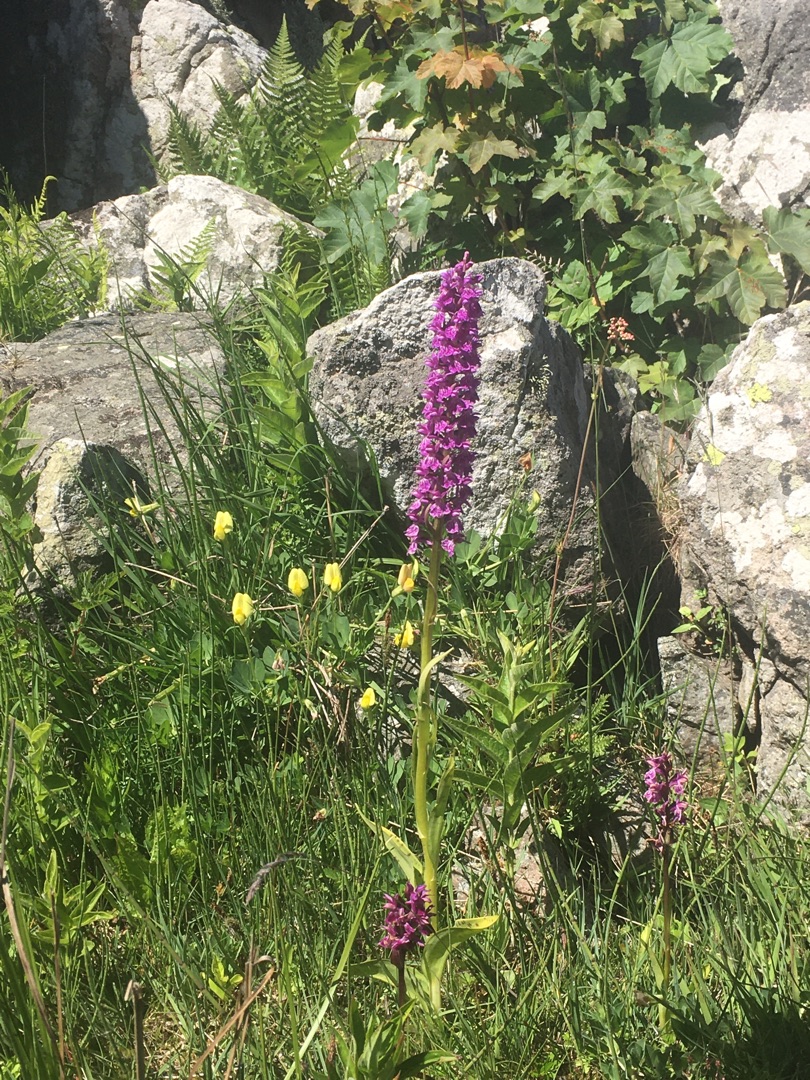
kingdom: Plantae
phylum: Tracheophyta
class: Liliopsida
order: Asparagales
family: Orchidaceae
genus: Dactylorhiza
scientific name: Dactylorhiza majalis
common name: Maj-gøgeurt
